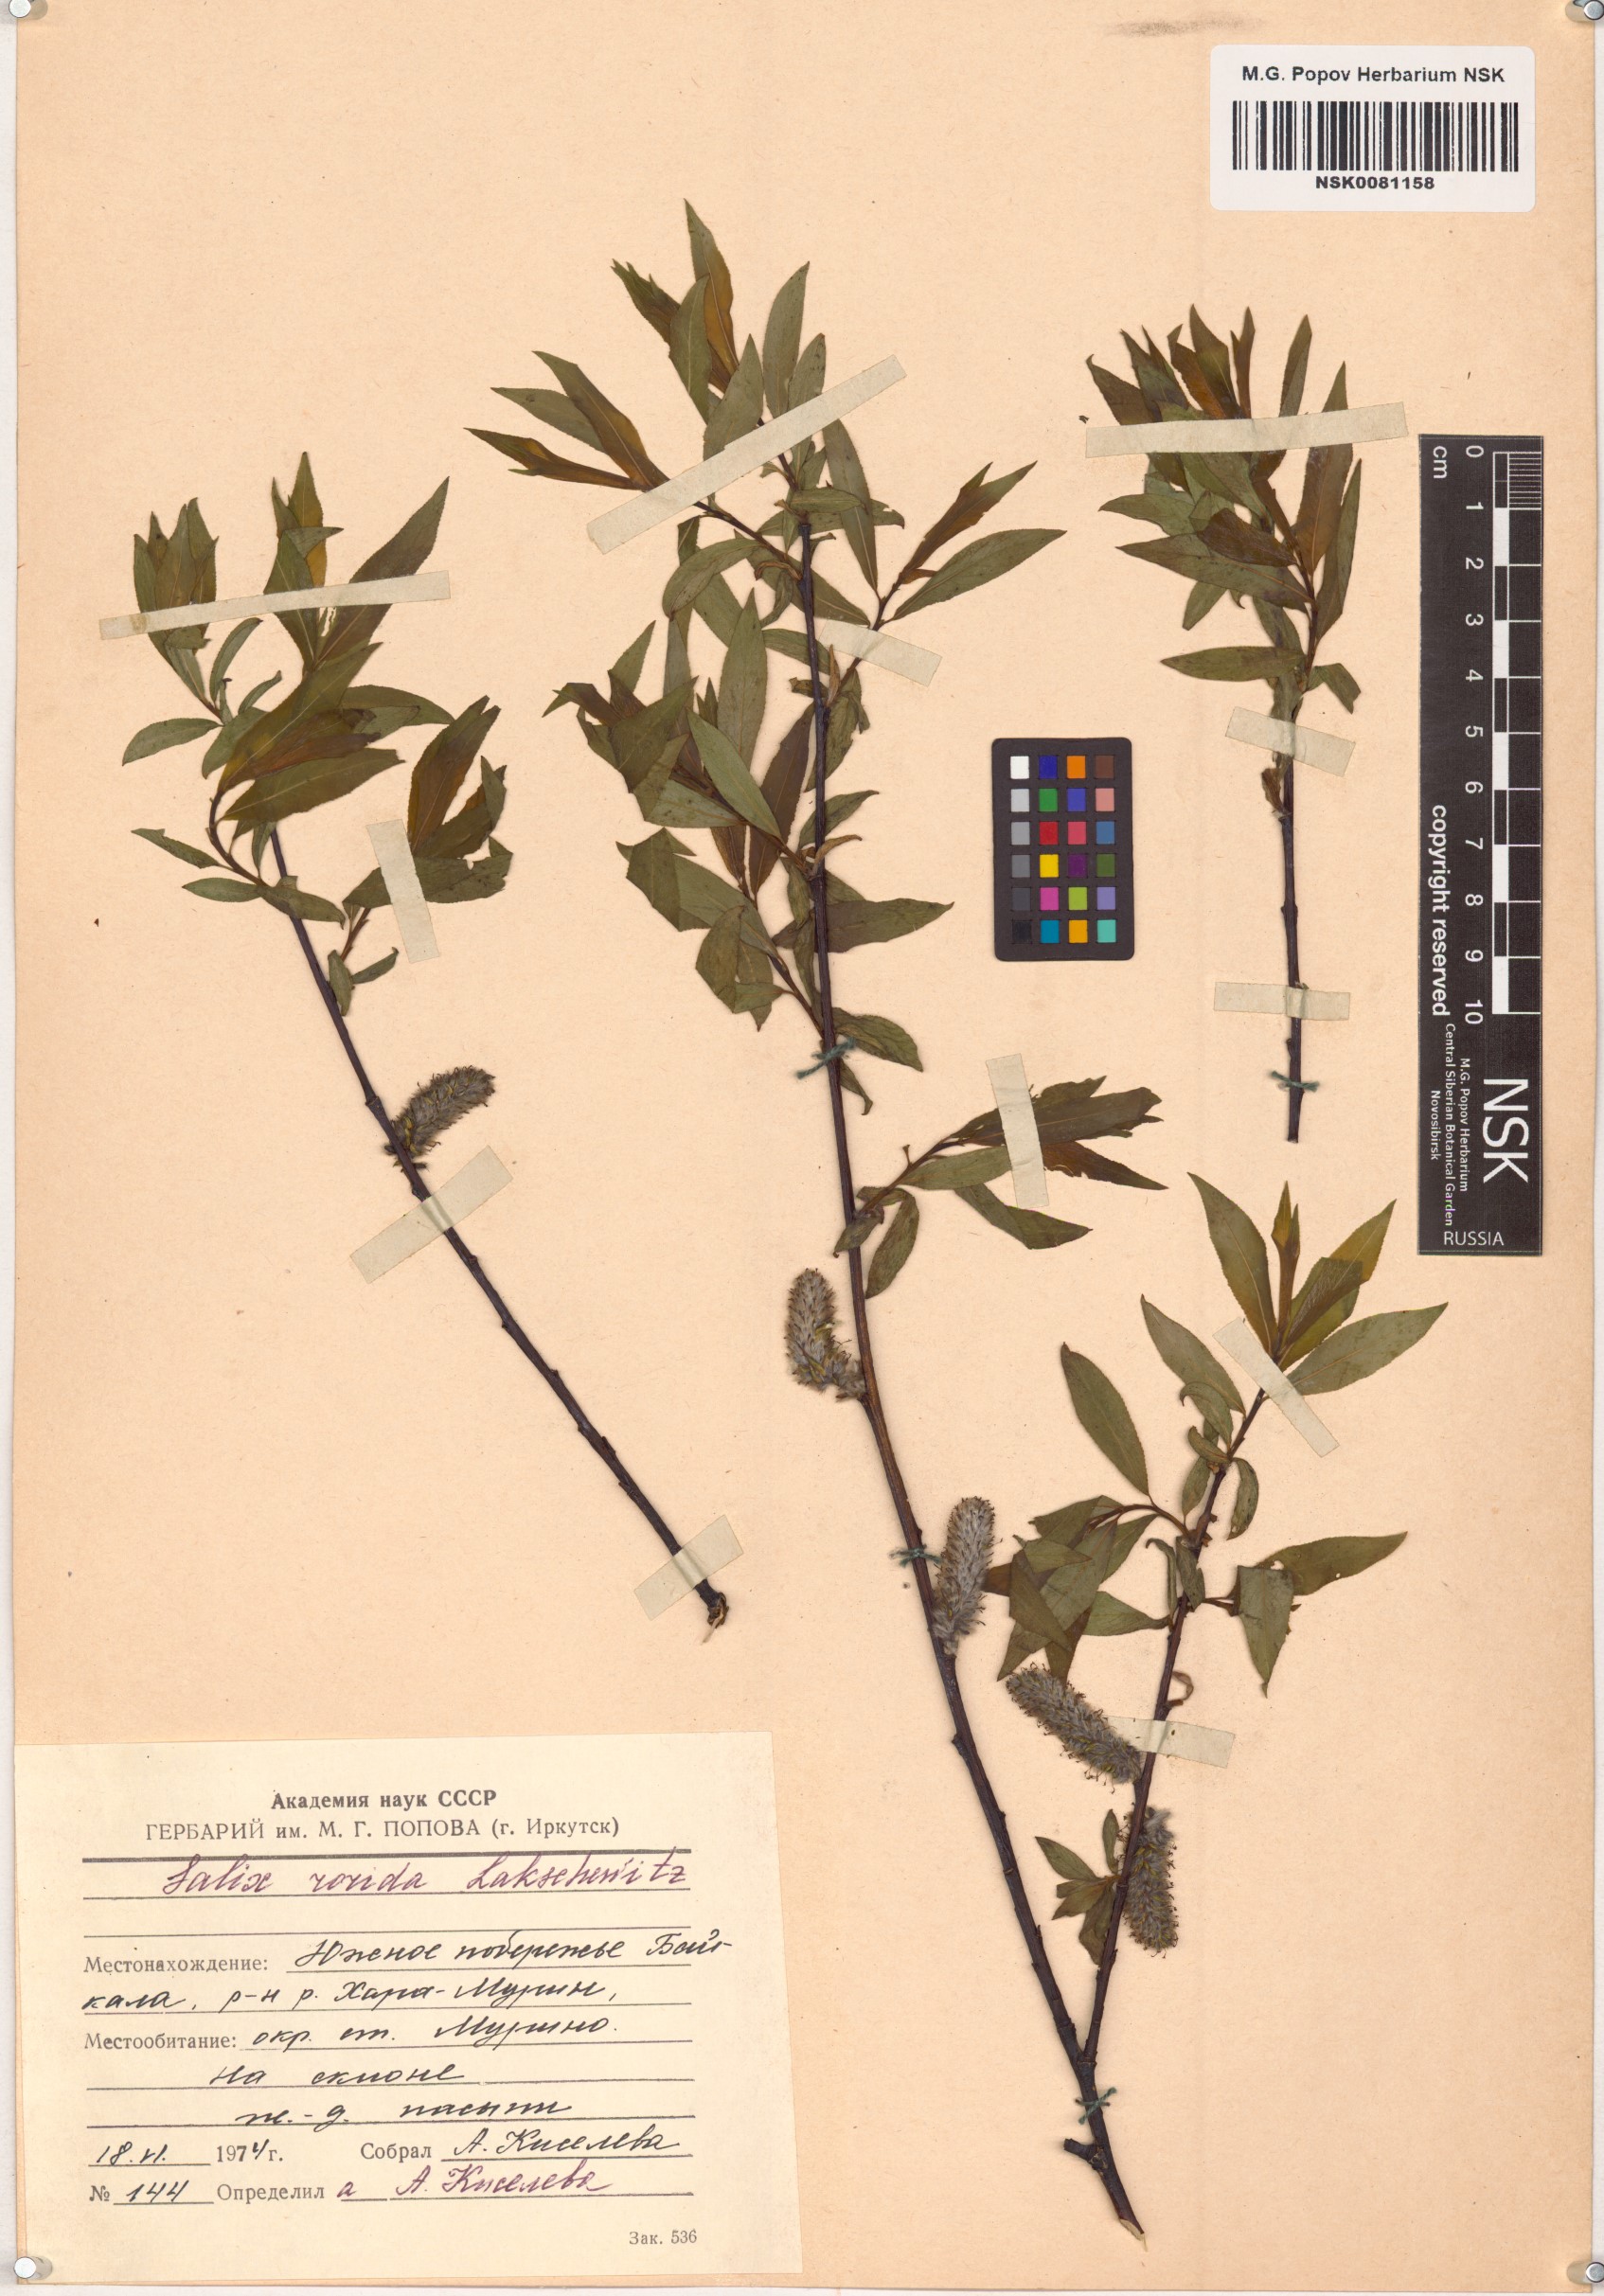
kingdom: Plantae
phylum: Tracheophyta
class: Magnoliopsida
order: Malpighiales
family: Salicaceae
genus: Salix
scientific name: Salix rorida
